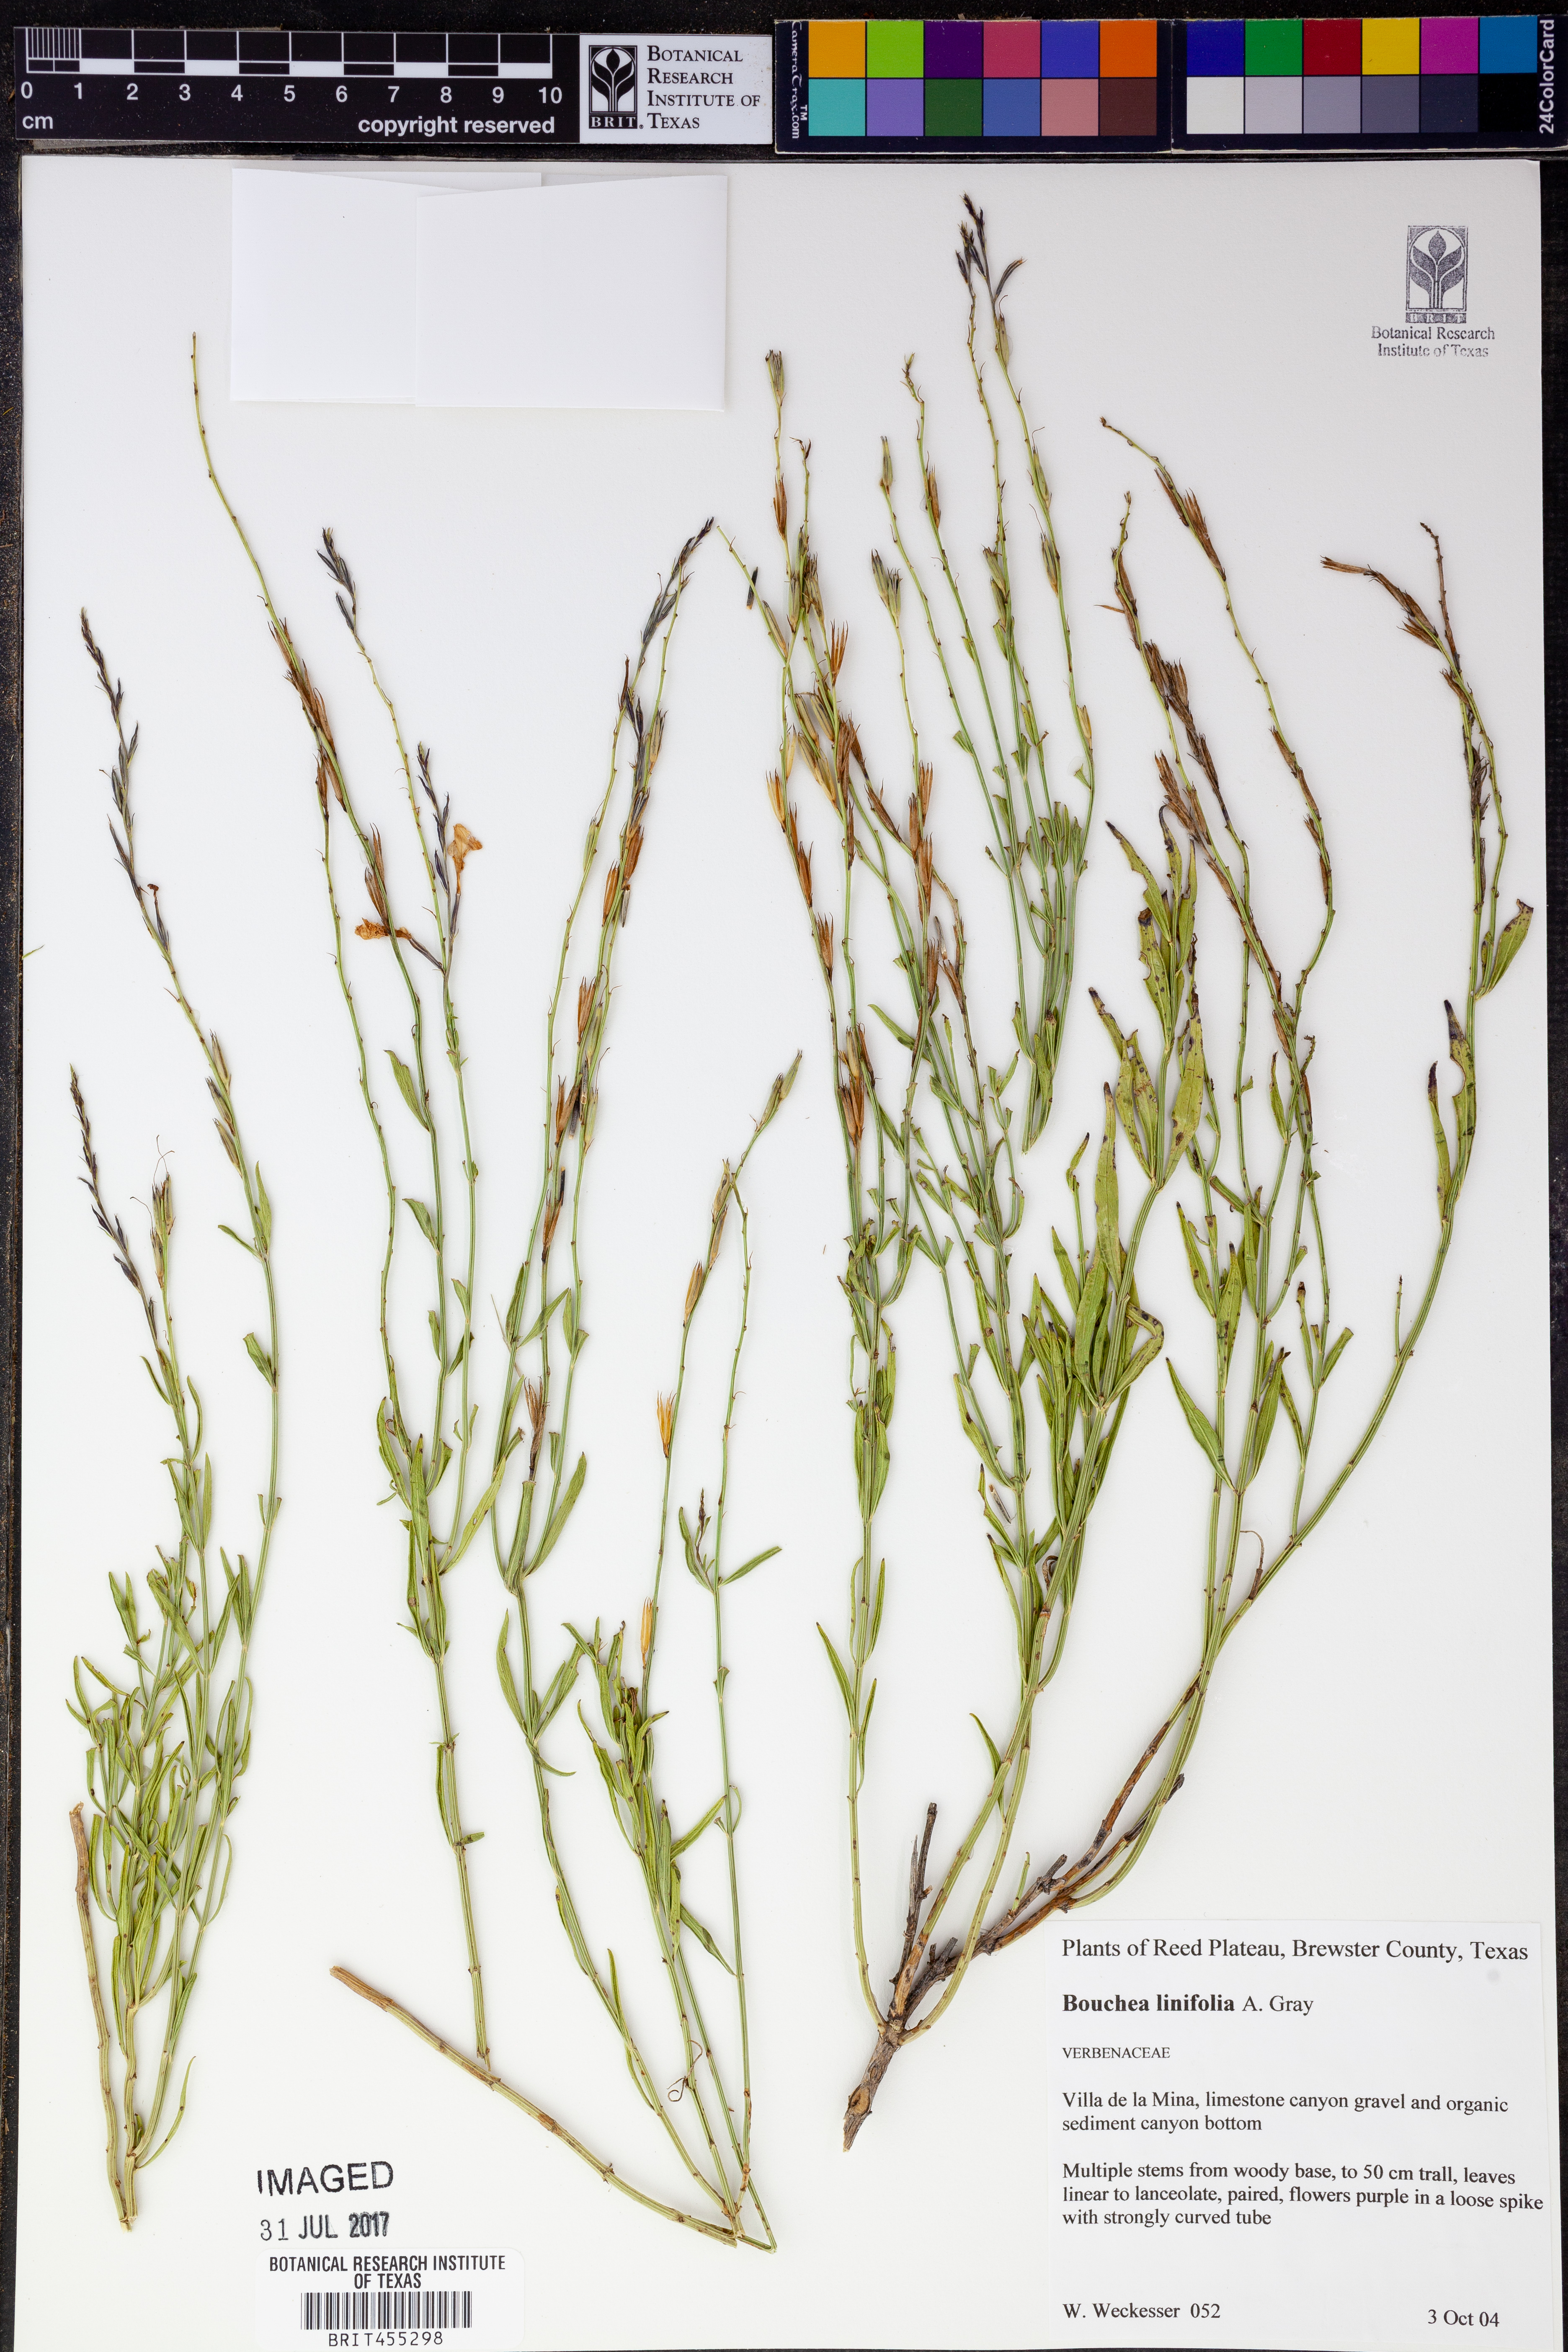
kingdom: Plantae
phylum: Tracheophyta
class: Magnoliopsida
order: Lamiales
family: Verbenaceae
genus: Bouchea
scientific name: Bouchea linifolia
